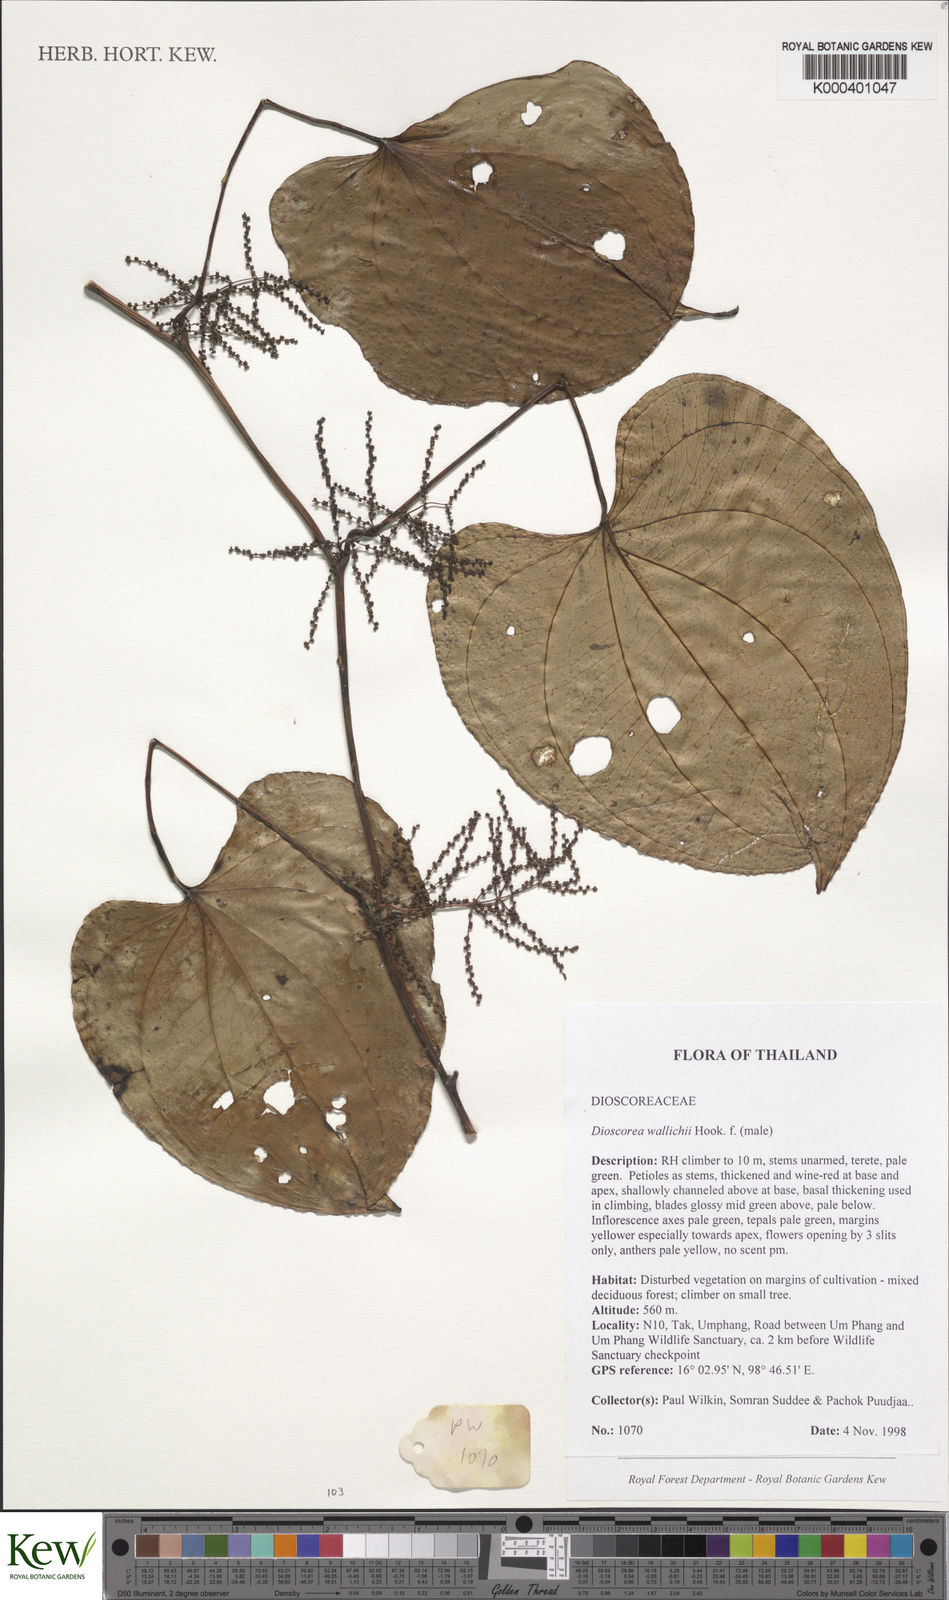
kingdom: Plantae
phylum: Tracheophyta
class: Liliopsida
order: Dioscoreales
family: Dioscoreaceae
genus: Dioscorea
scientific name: Dioscorea wallichii
